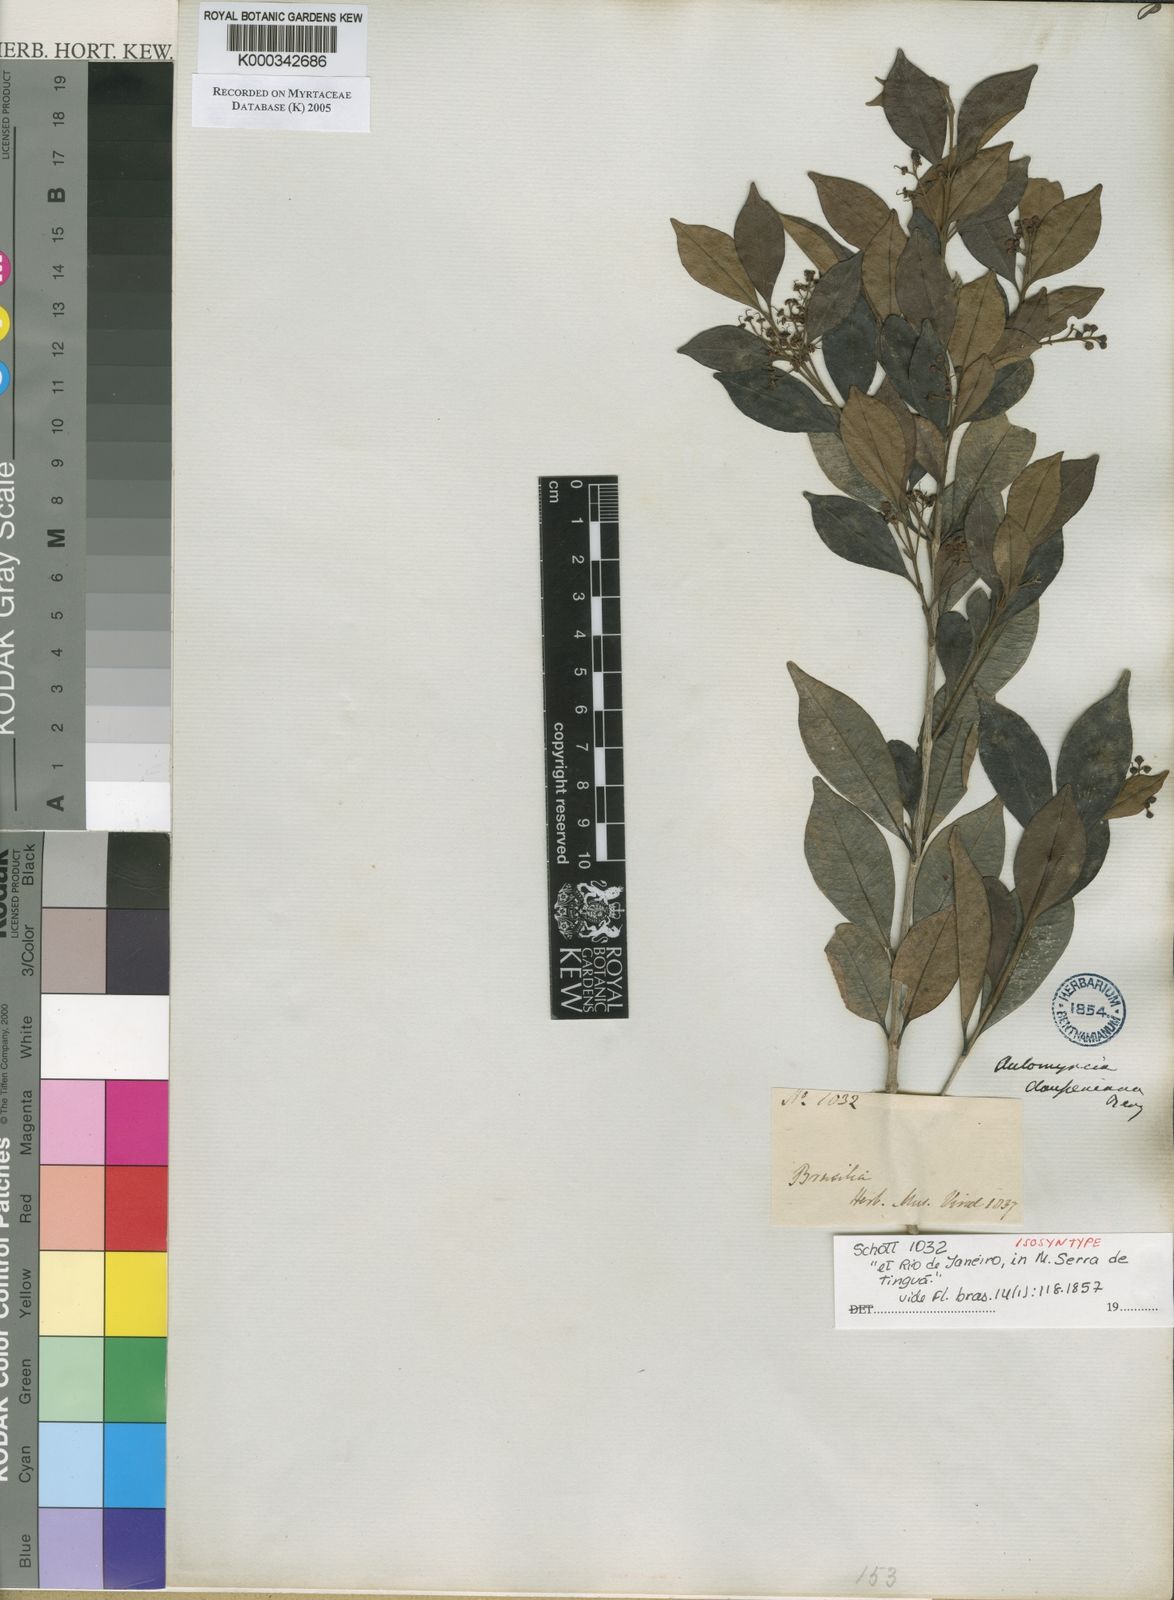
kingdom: Plantae
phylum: Tracheophyta
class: Magnoliopsida
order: Myrtales
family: Myrtaceae
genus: Myrcia
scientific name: Myrcia guianensis
